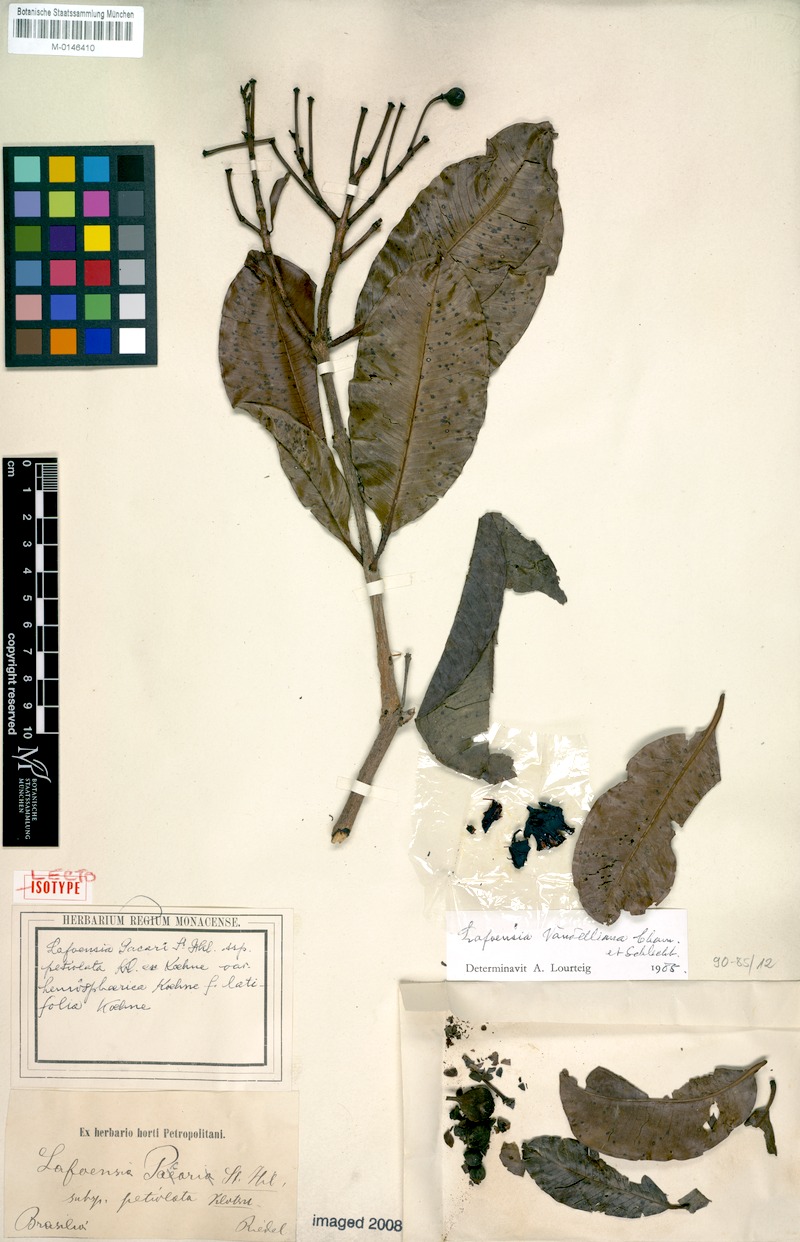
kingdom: Plantae
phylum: Tracheophyta
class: Magnoliopsida
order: Myrtales
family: Lythraceae
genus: Lafoensia
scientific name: Lafoensia vandelliana
